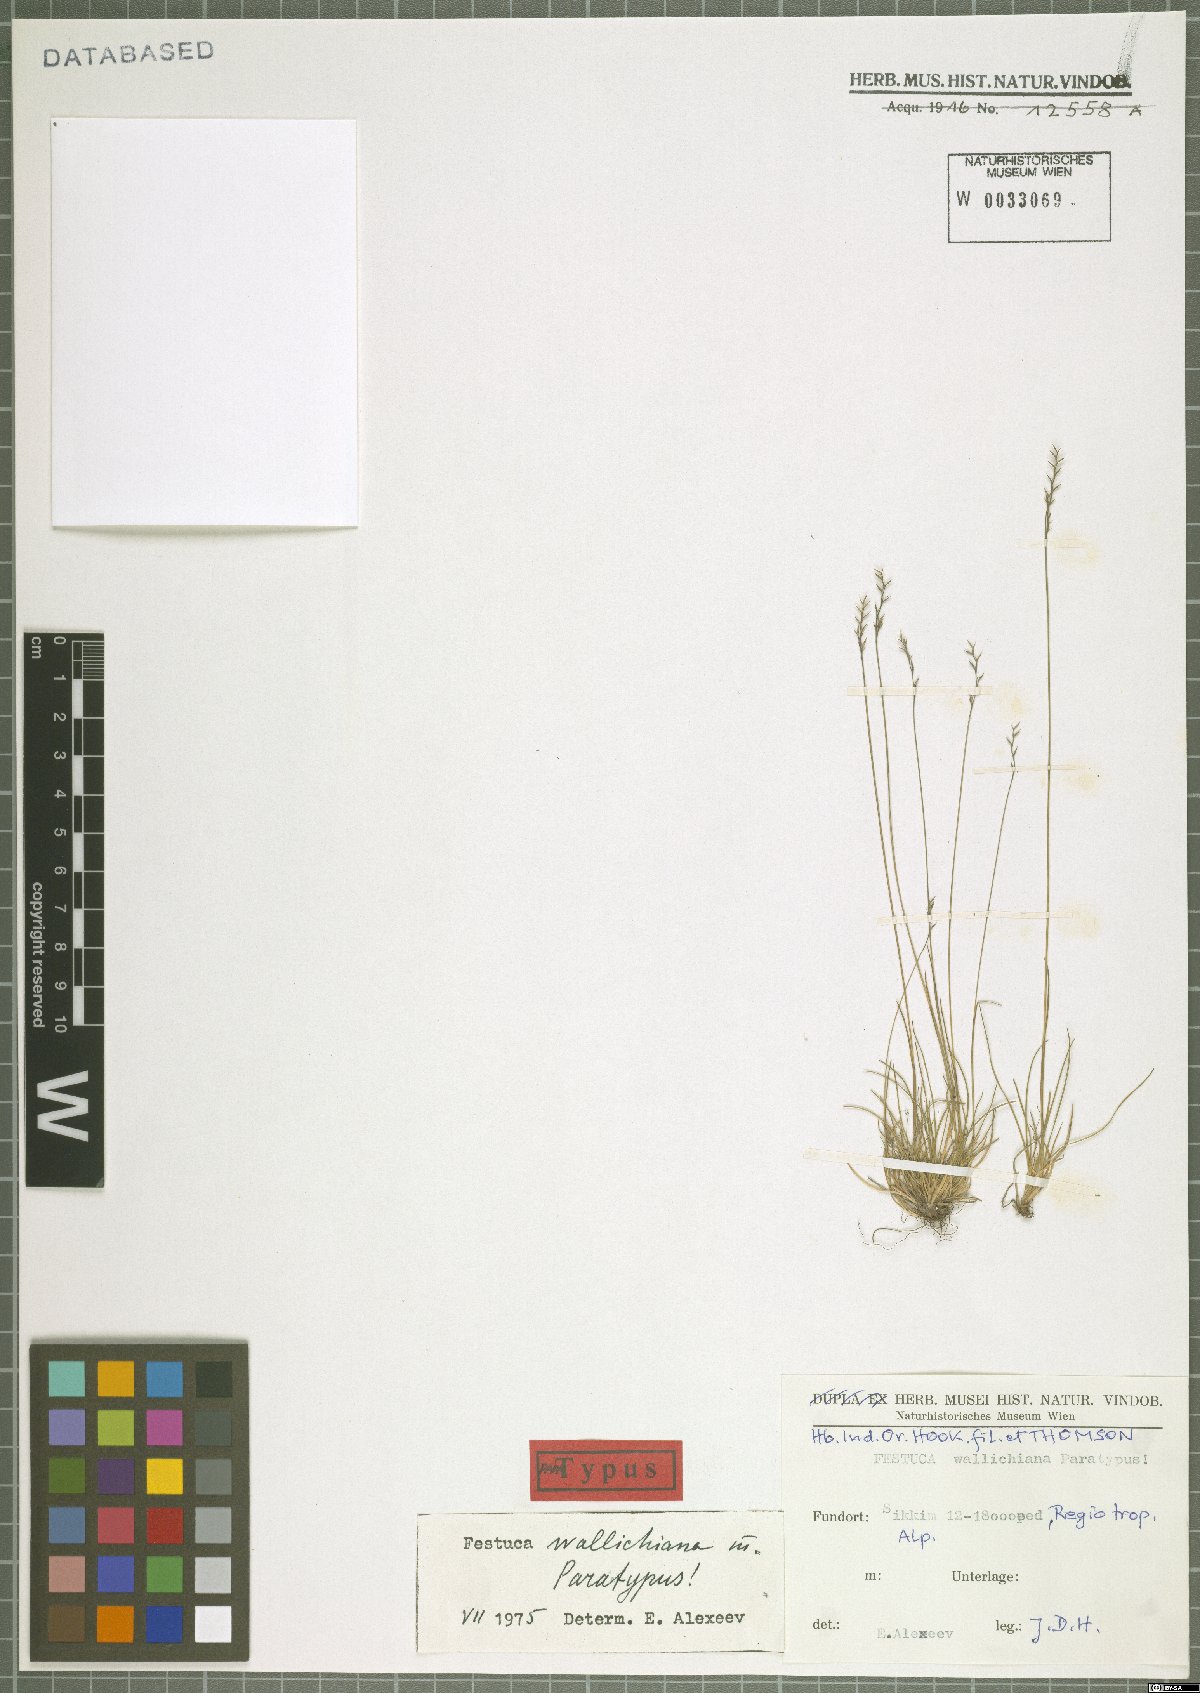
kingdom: Plantae
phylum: Tracheophyta
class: Liliopsida
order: Poales
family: Poaceae
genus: Festuca
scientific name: Festuca wallichiana
